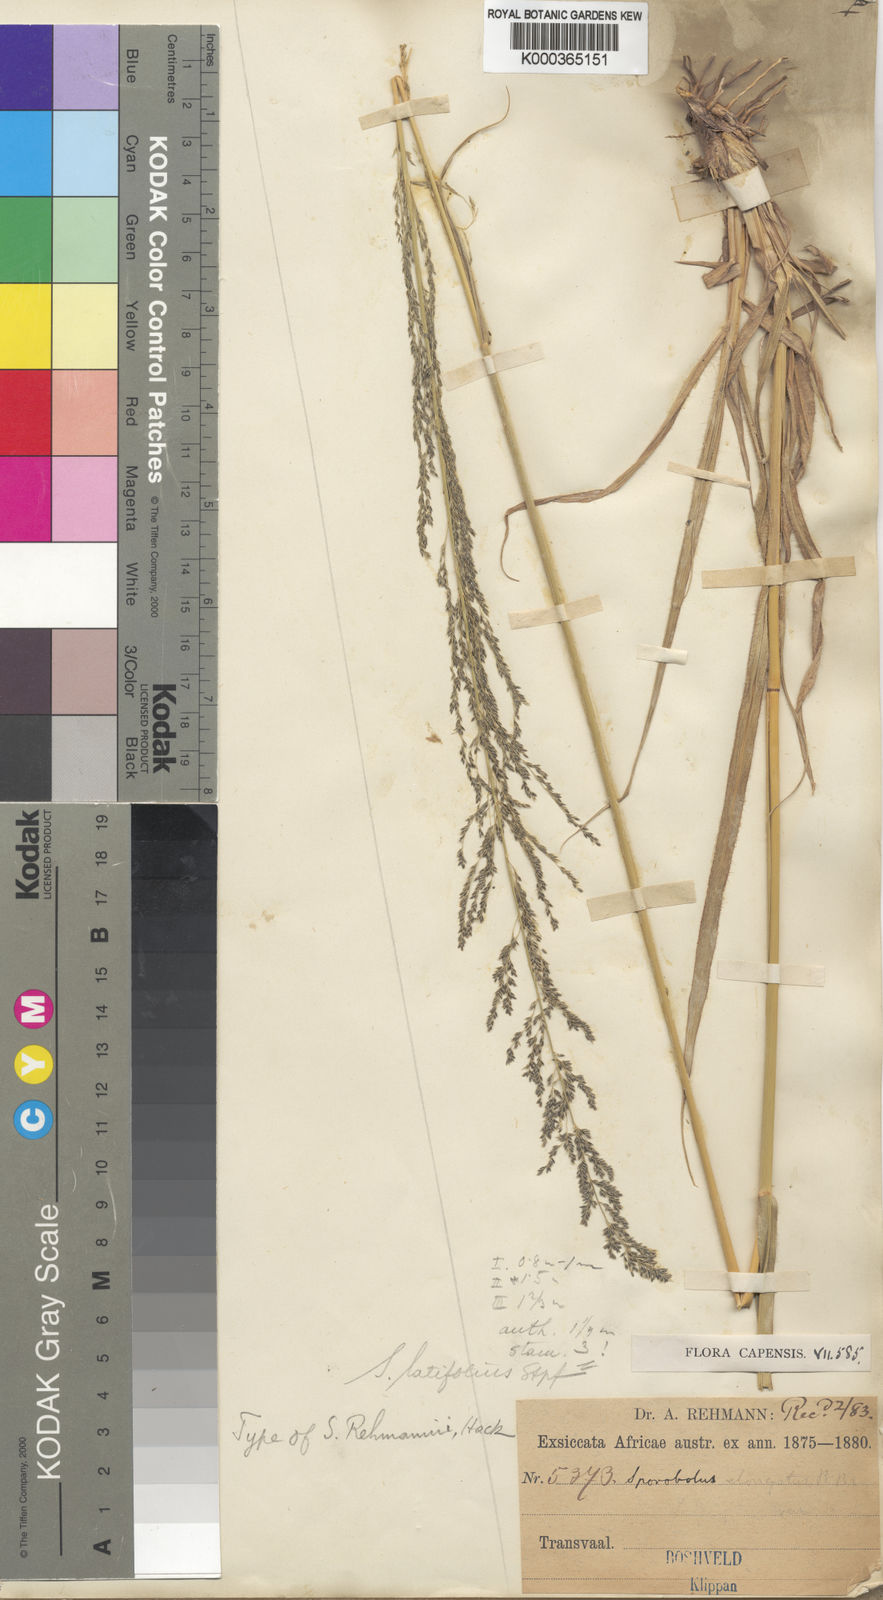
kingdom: Plantae
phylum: Tracheophyta
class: Liliopsida
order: Poales
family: Poaceae
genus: Sporobolus
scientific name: Sporobolus fimbriatus
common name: Fringed dropseed
